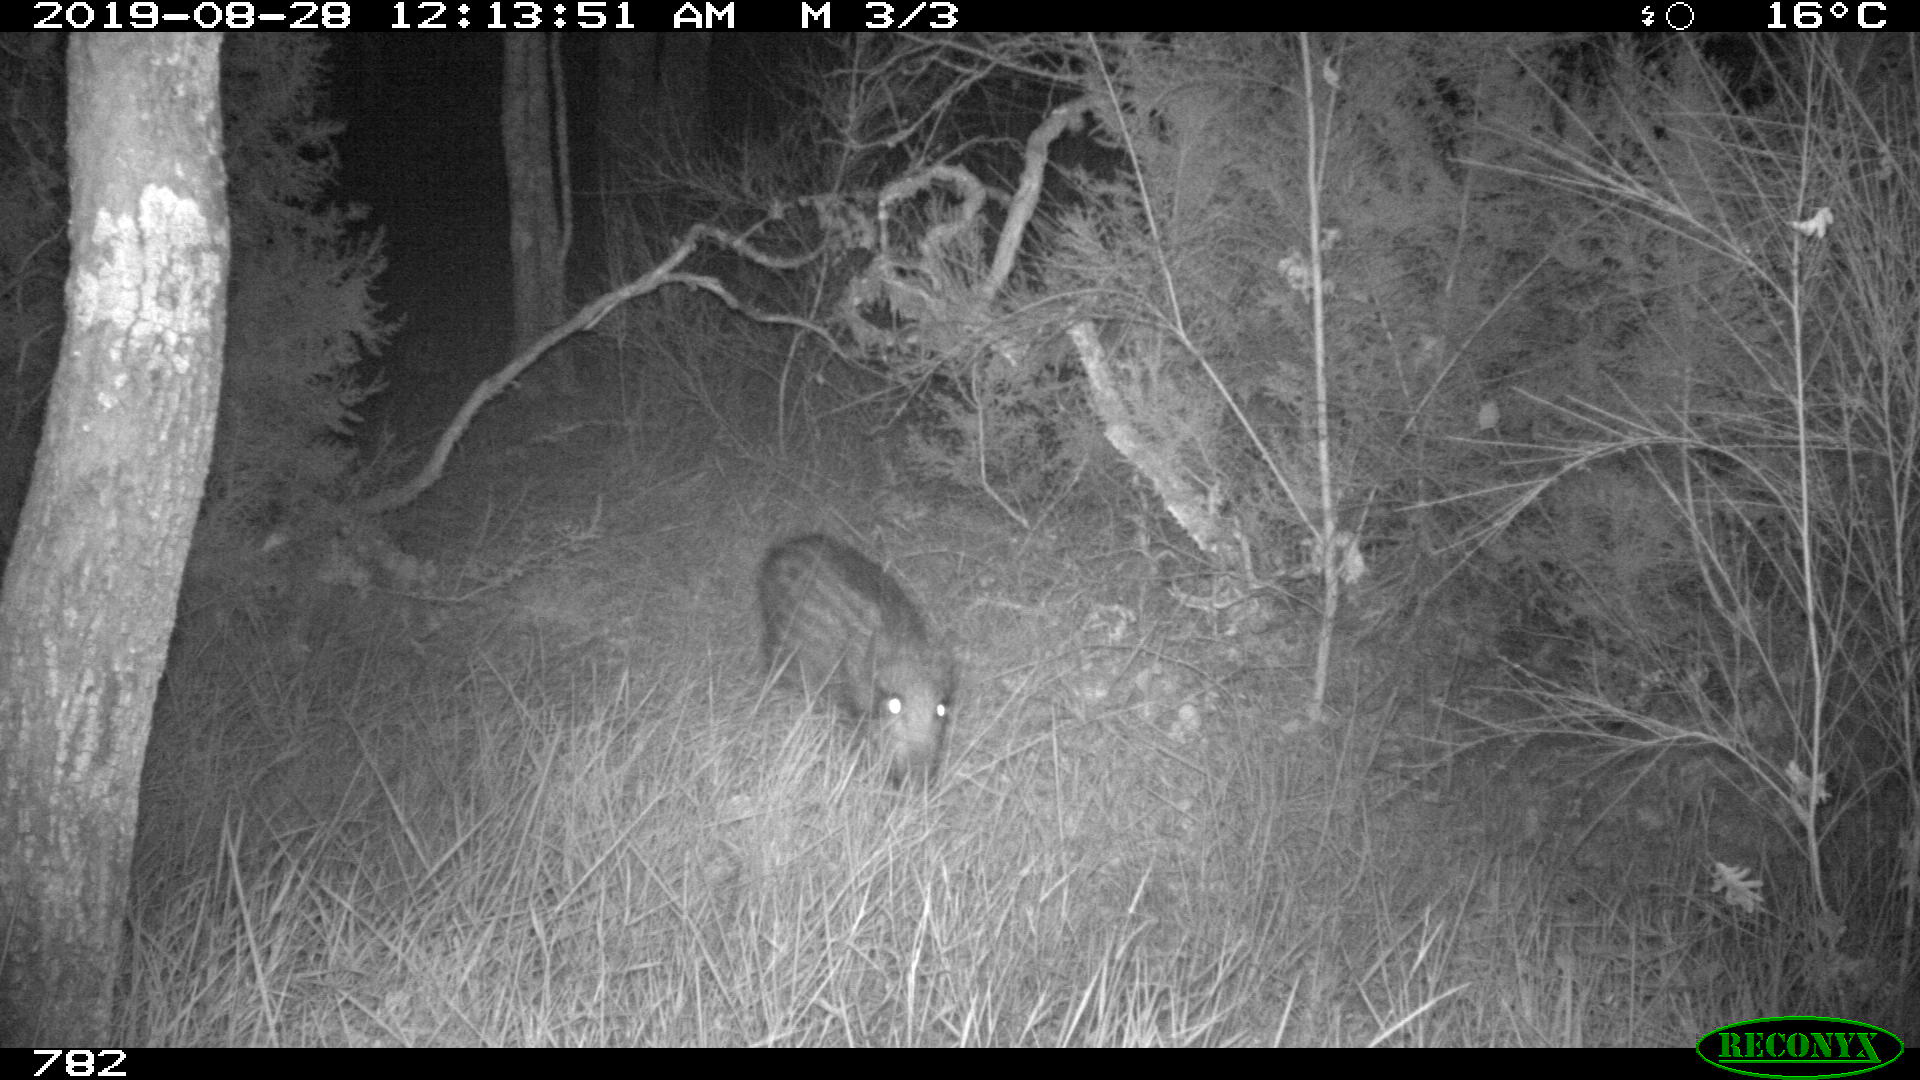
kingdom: Animalia
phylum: Chordata
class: Mammalia
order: Artiodactyla
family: Suidae
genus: Sus
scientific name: Sus scrofa
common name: Wild boar
